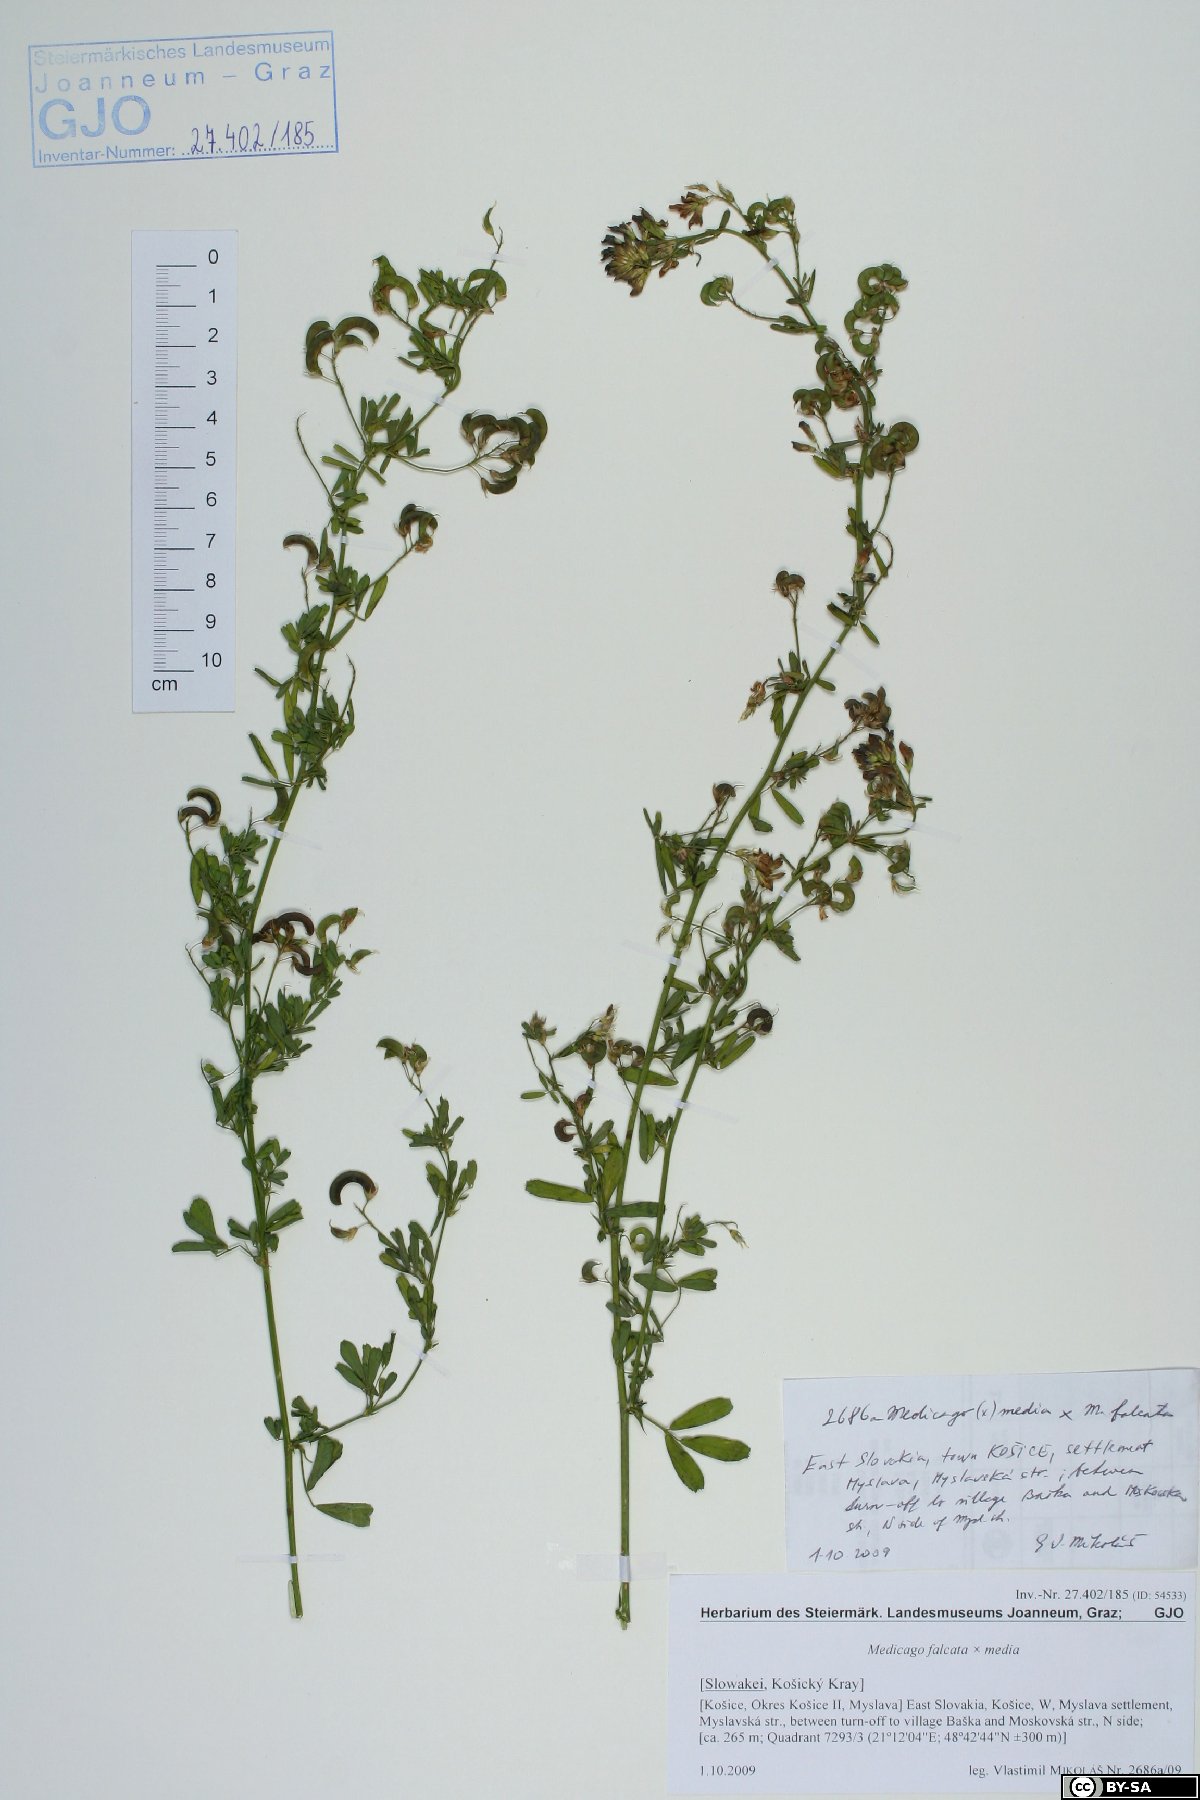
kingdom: Plantae
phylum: Tracheophyta
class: Magnoliopsida
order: Fabales
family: Fabaceae
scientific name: Fabaceae
